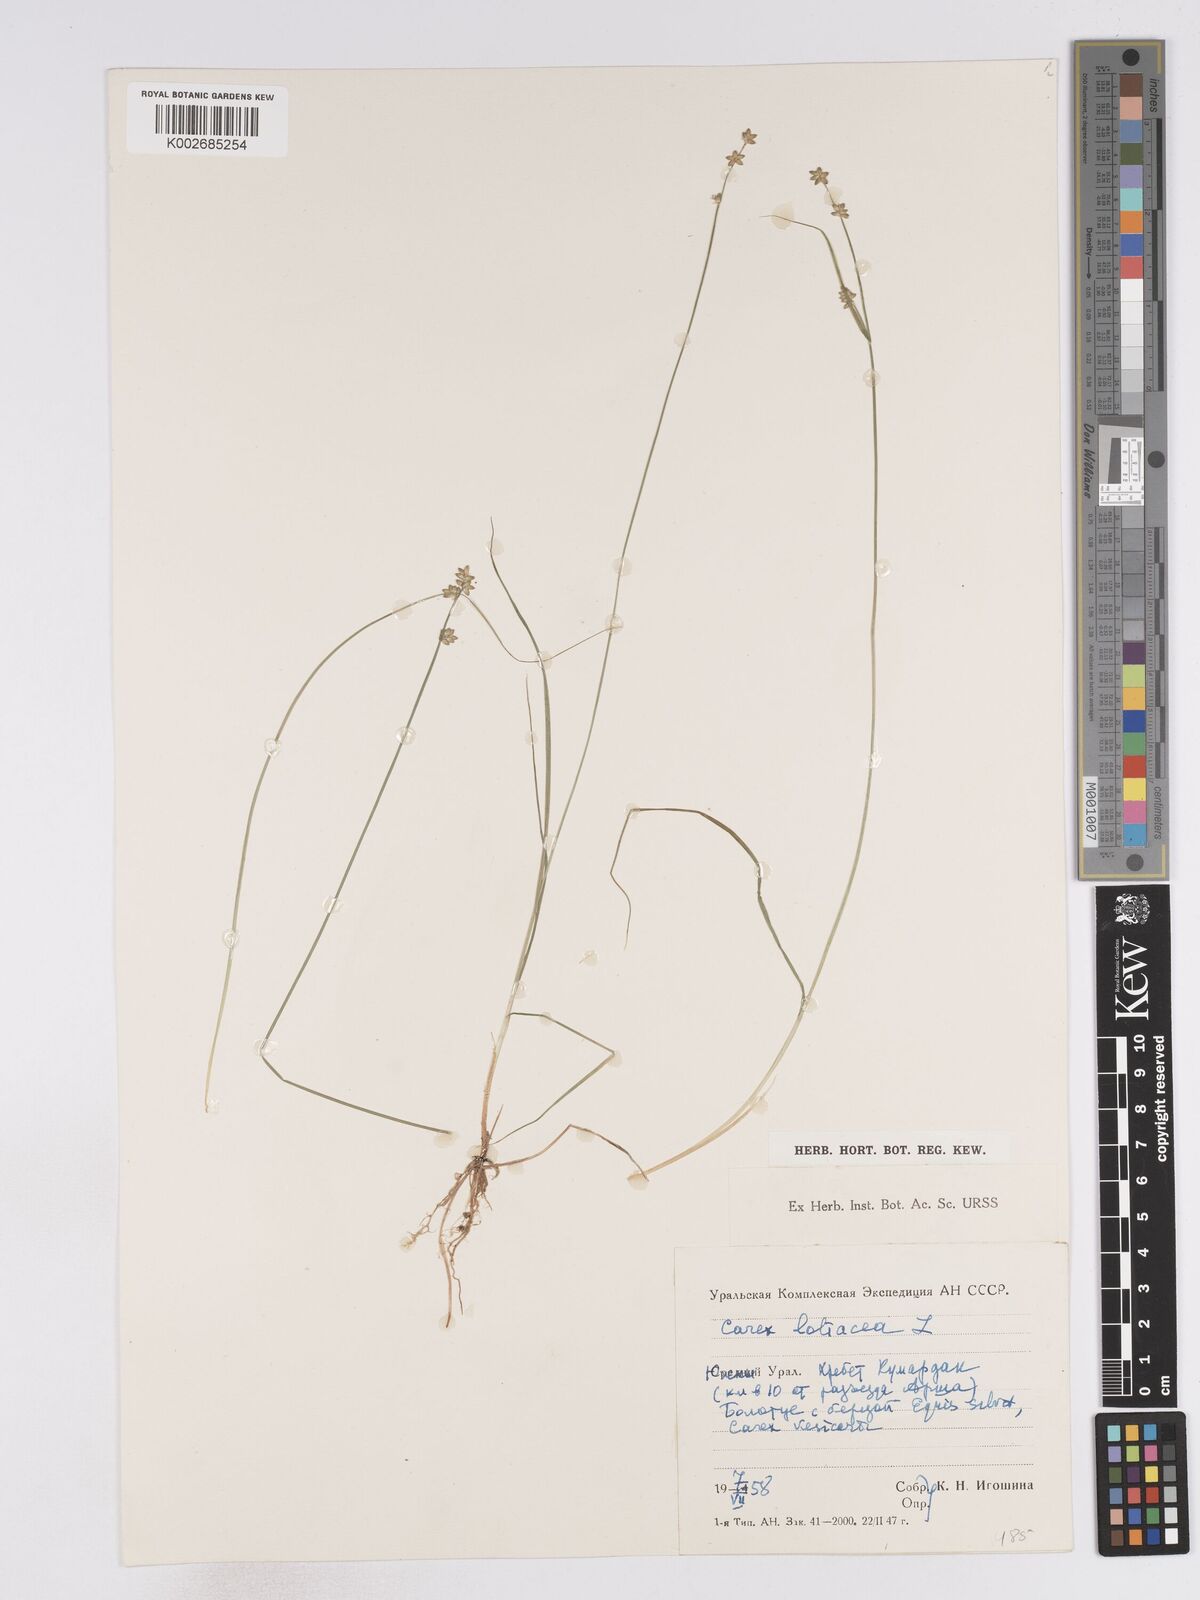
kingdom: Plantae
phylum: Tracheophyta
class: Liliopsida
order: Poales
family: Cyperaceae
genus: Carex
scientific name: Carex loliacea
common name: Ryegrass sedge
